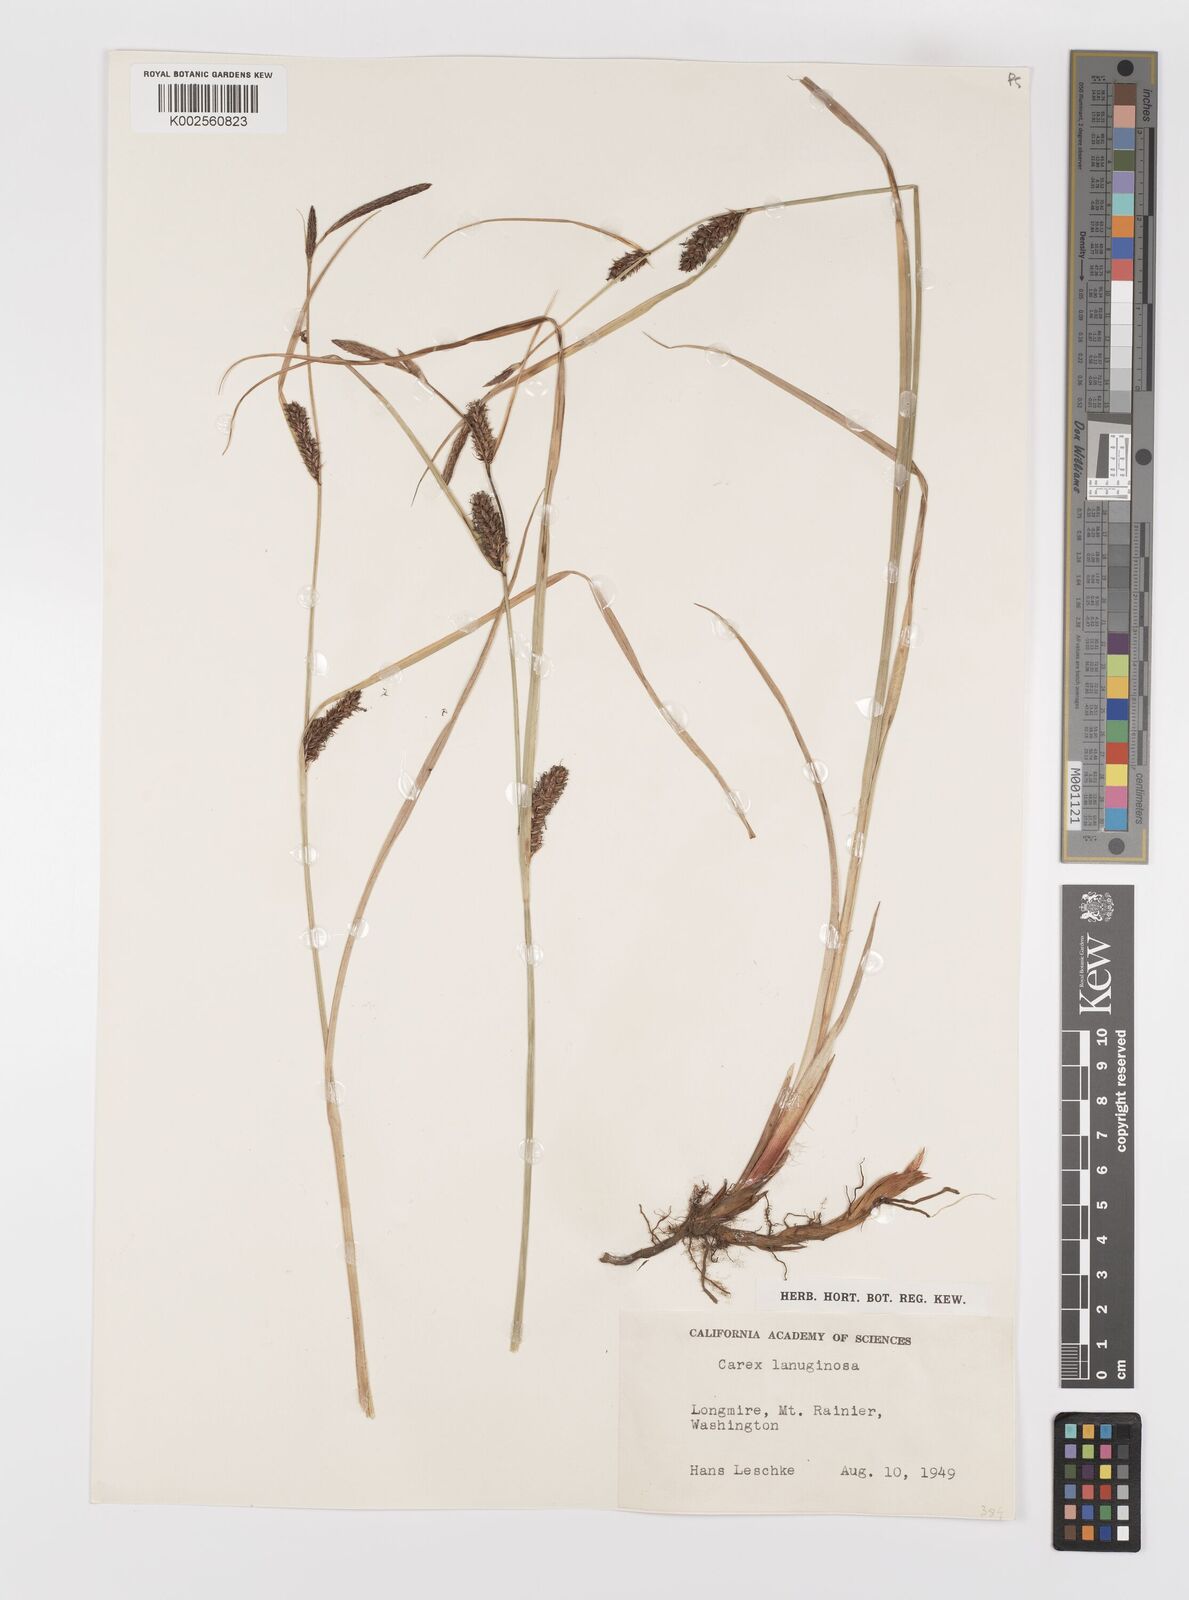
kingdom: Plantae
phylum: Tracheophyta
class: Liliopsida
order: Poales
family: Cyperaceae
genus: Carex
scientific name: Carex lasiocarpa
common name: Slender sedge
